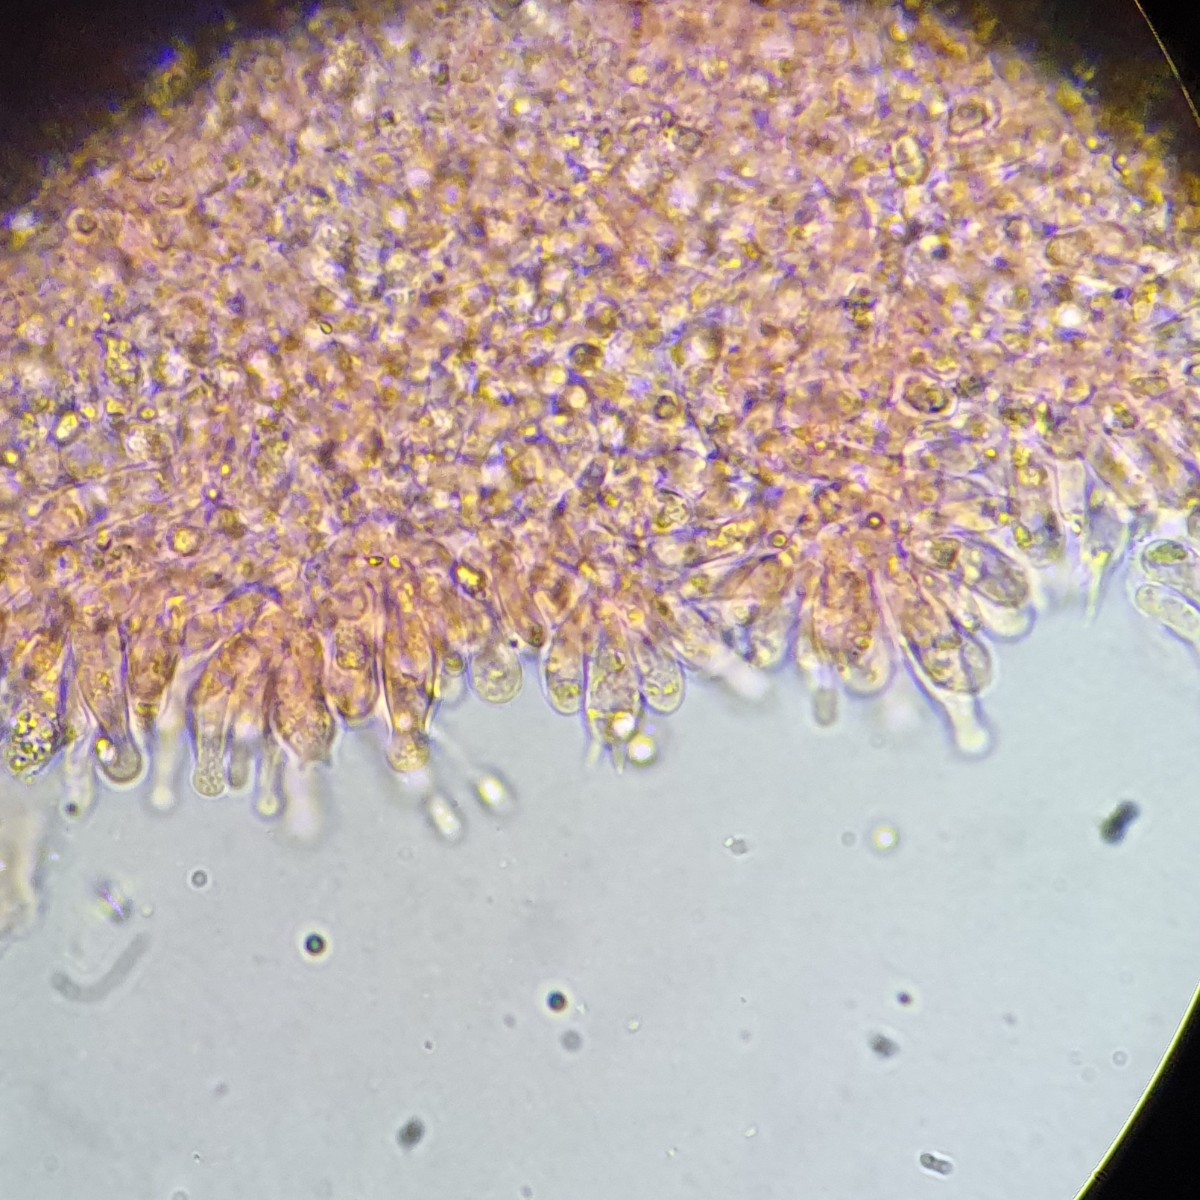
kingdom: Fungi
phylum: Basidiomycota
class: Agaricomycetes
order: Agaricales
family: Mycenaceae
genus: Hemimycena
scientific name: Hemimycena lactea
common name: mælkehvid huesvamp
